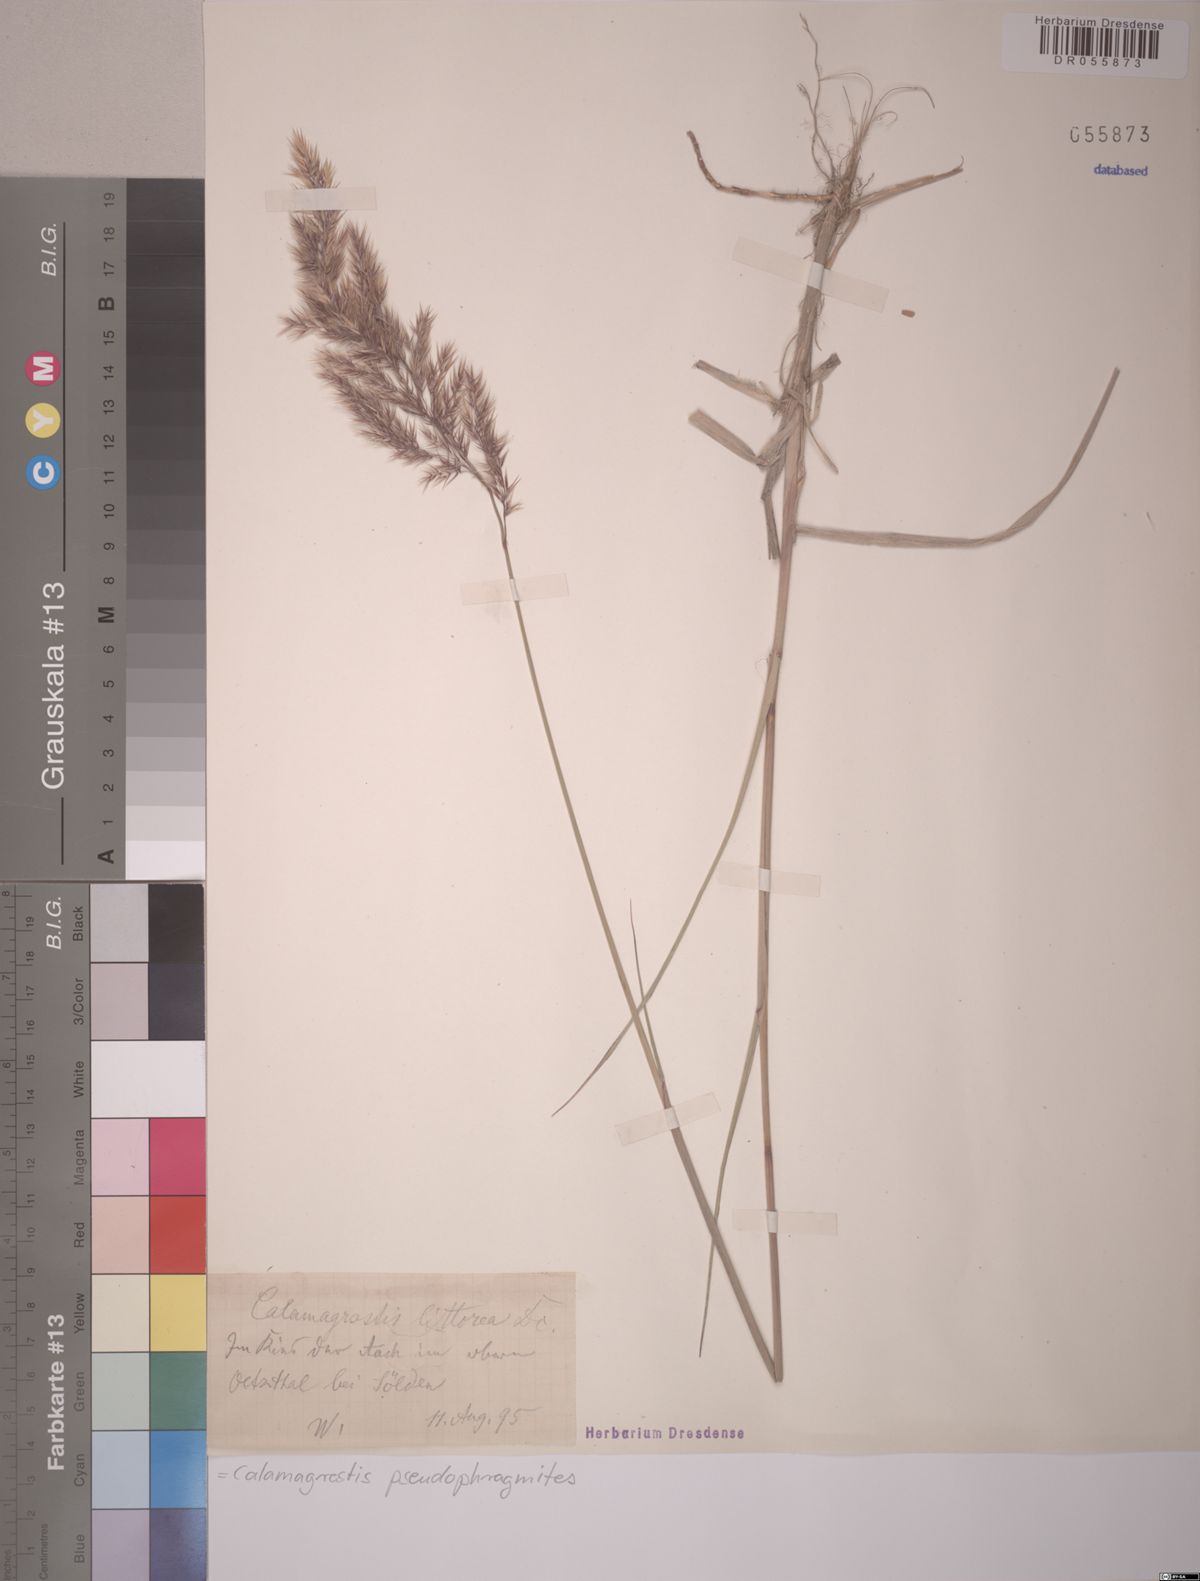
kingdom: Plantae
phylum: Tracheophyta
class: Liliopsida
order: Poales
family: Poaceae
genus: Calamagrostis
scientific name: Calamagrostis pseudophragmites
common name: Coastal small-reed
